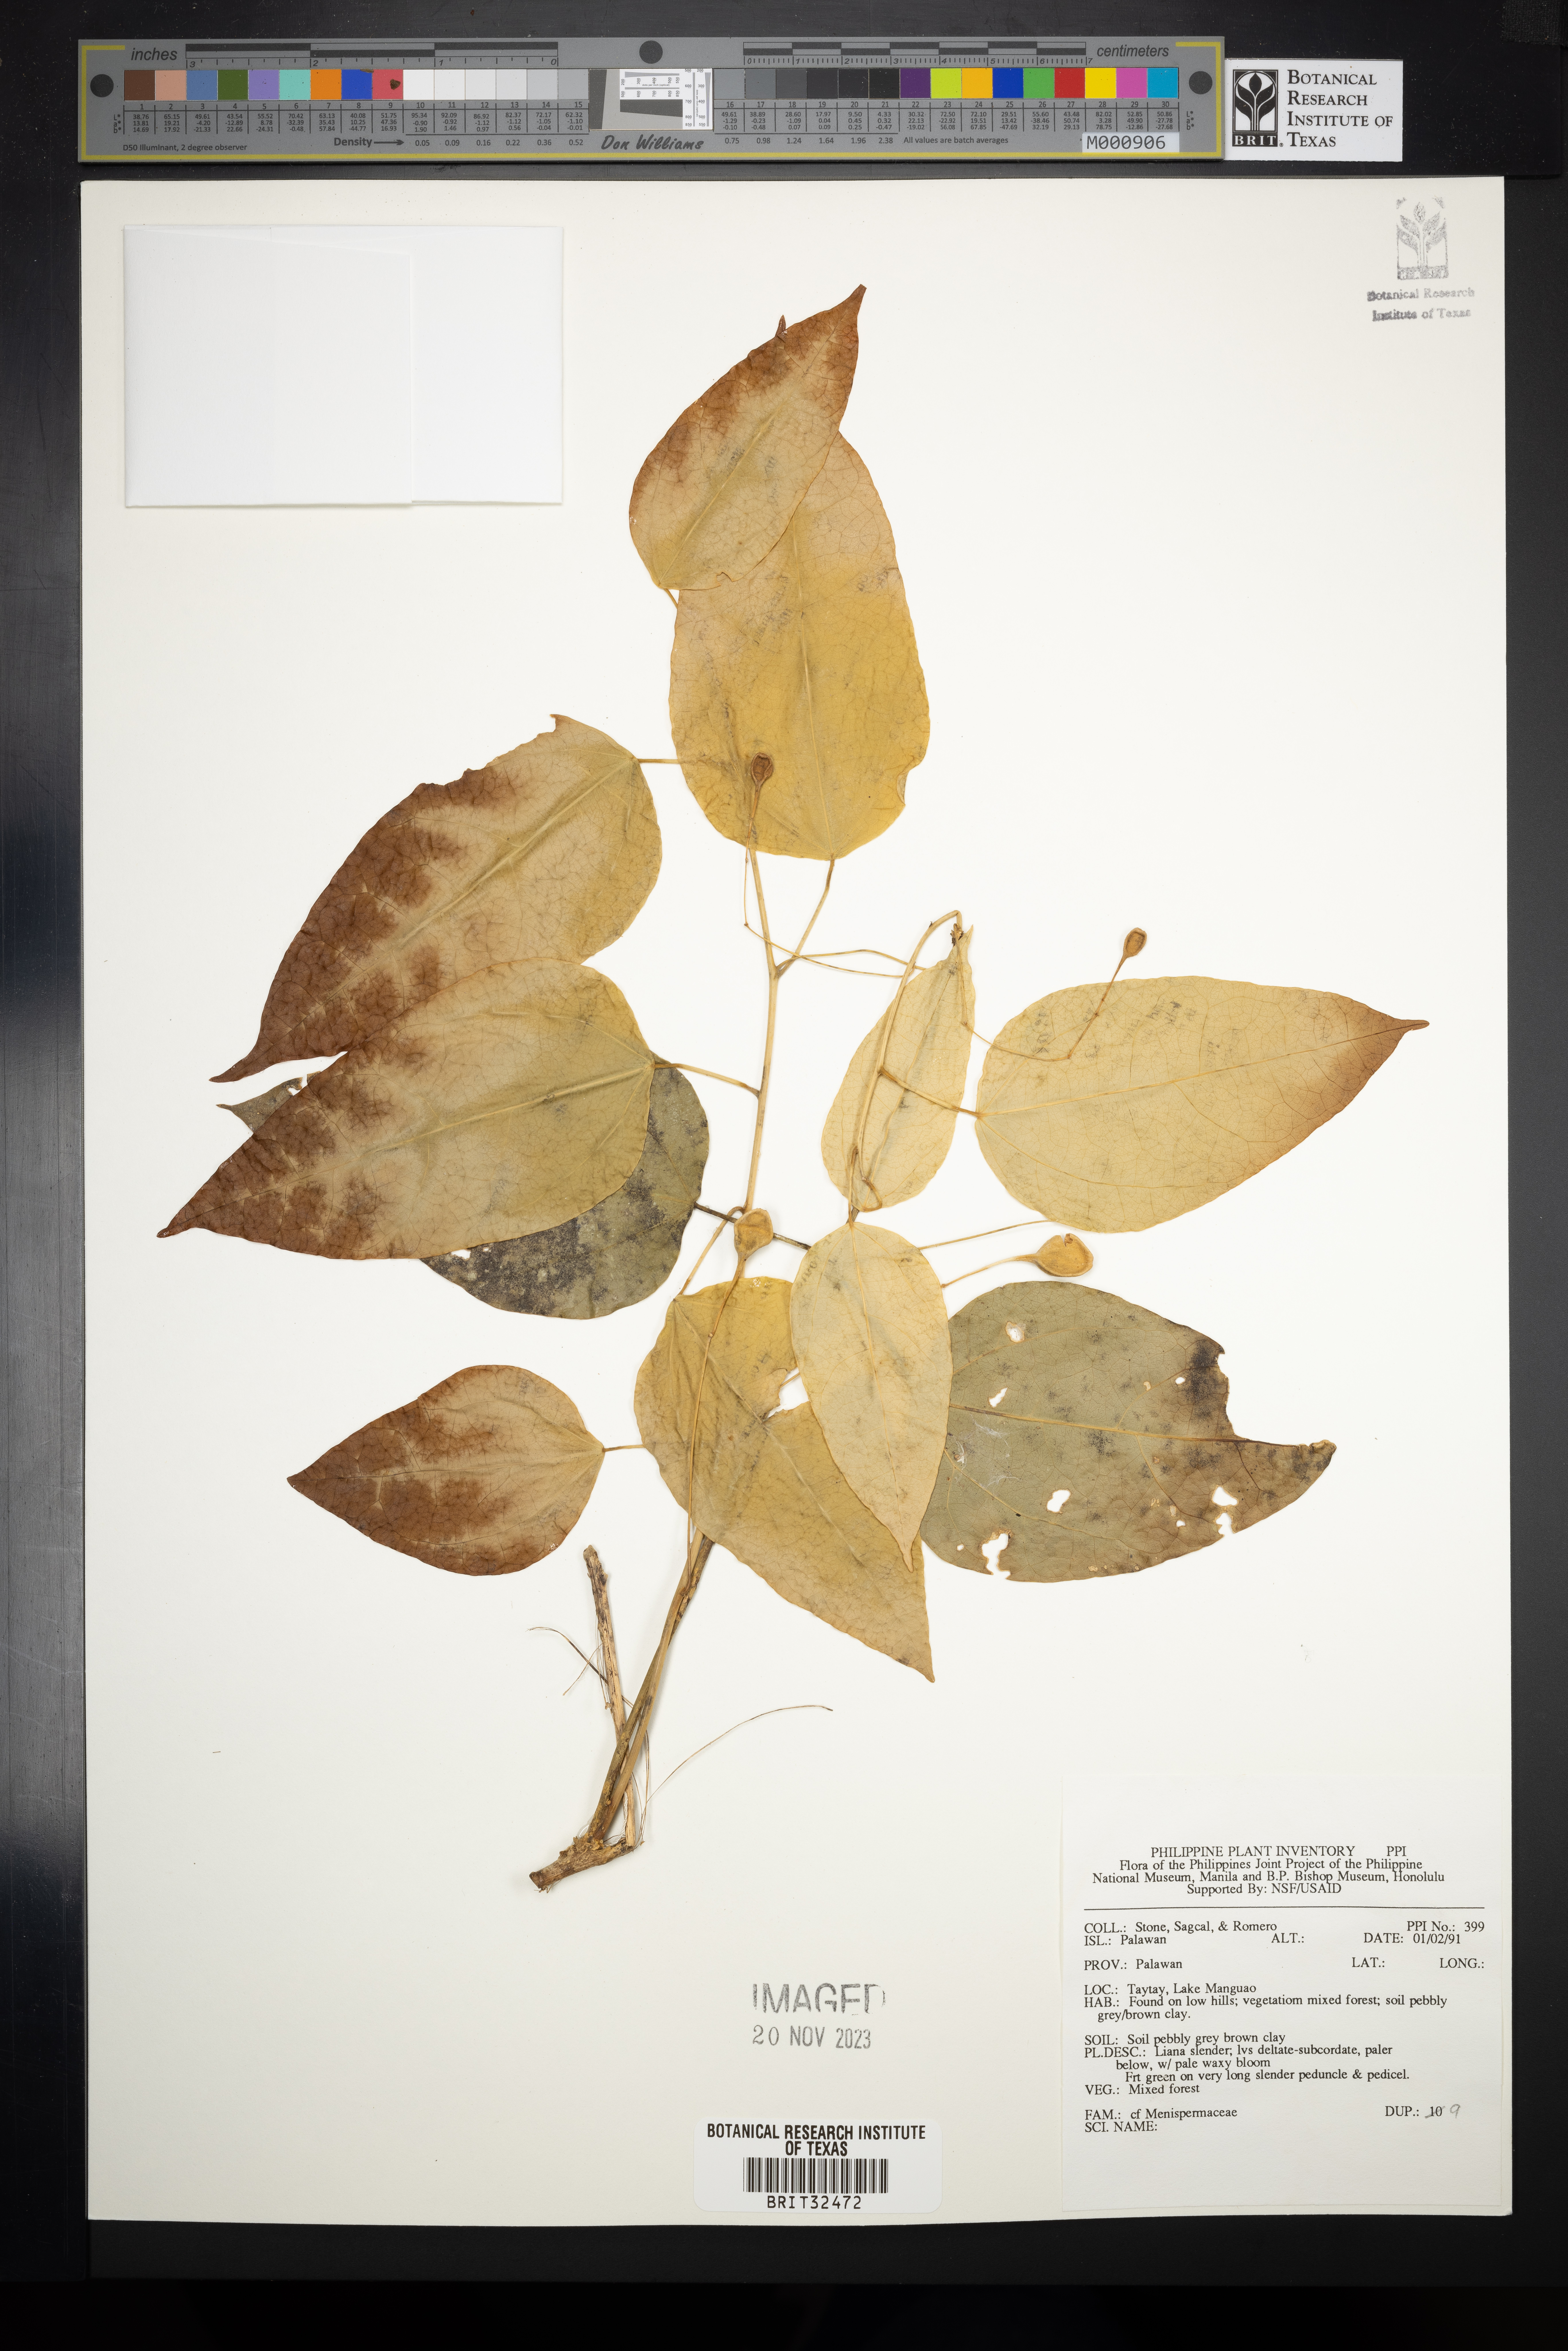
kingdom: Plantae
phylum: Tracheophyta
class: Magnoliopsida
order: Ranunculales
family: Menispermaceae
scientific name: Menispermaceae
